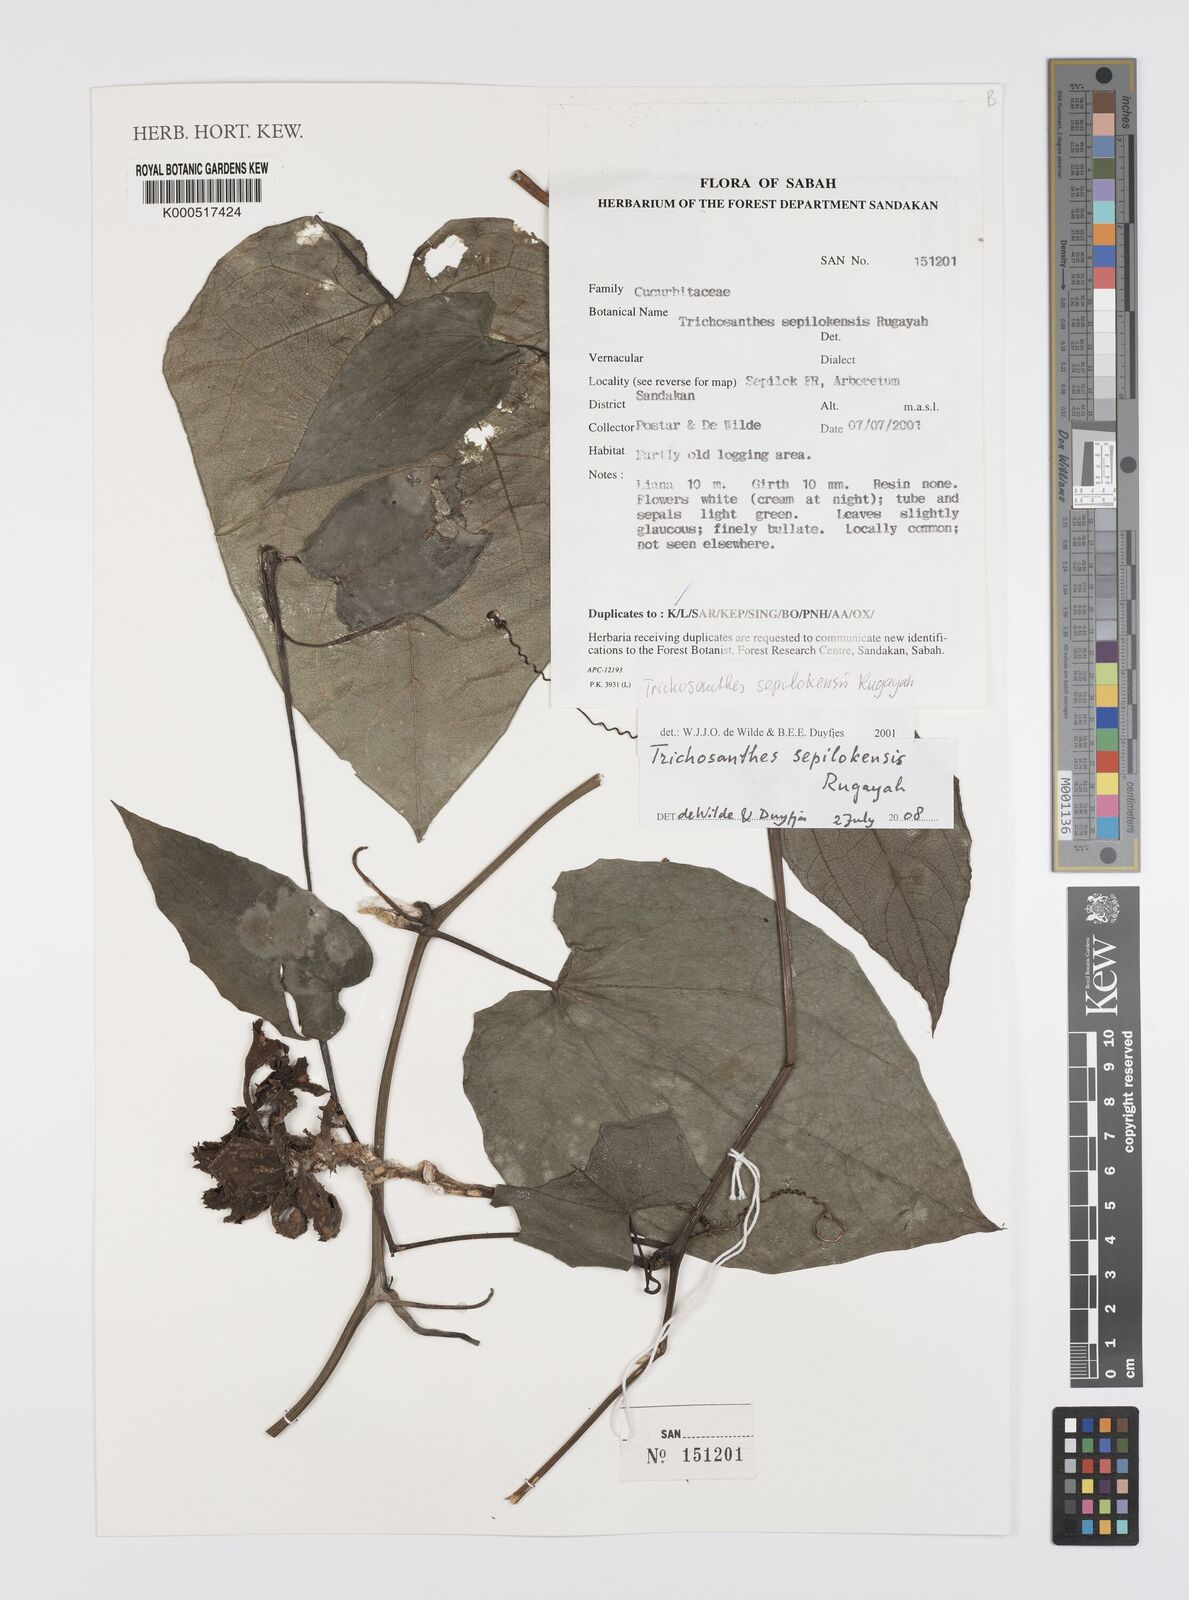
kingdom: Plantae
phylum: Tracheophyta
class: Magnoliopsida
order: Cucurbitales
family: Cucurbitaceae
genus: Trichosanthes
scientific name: Trichosanthes sepilokensis
